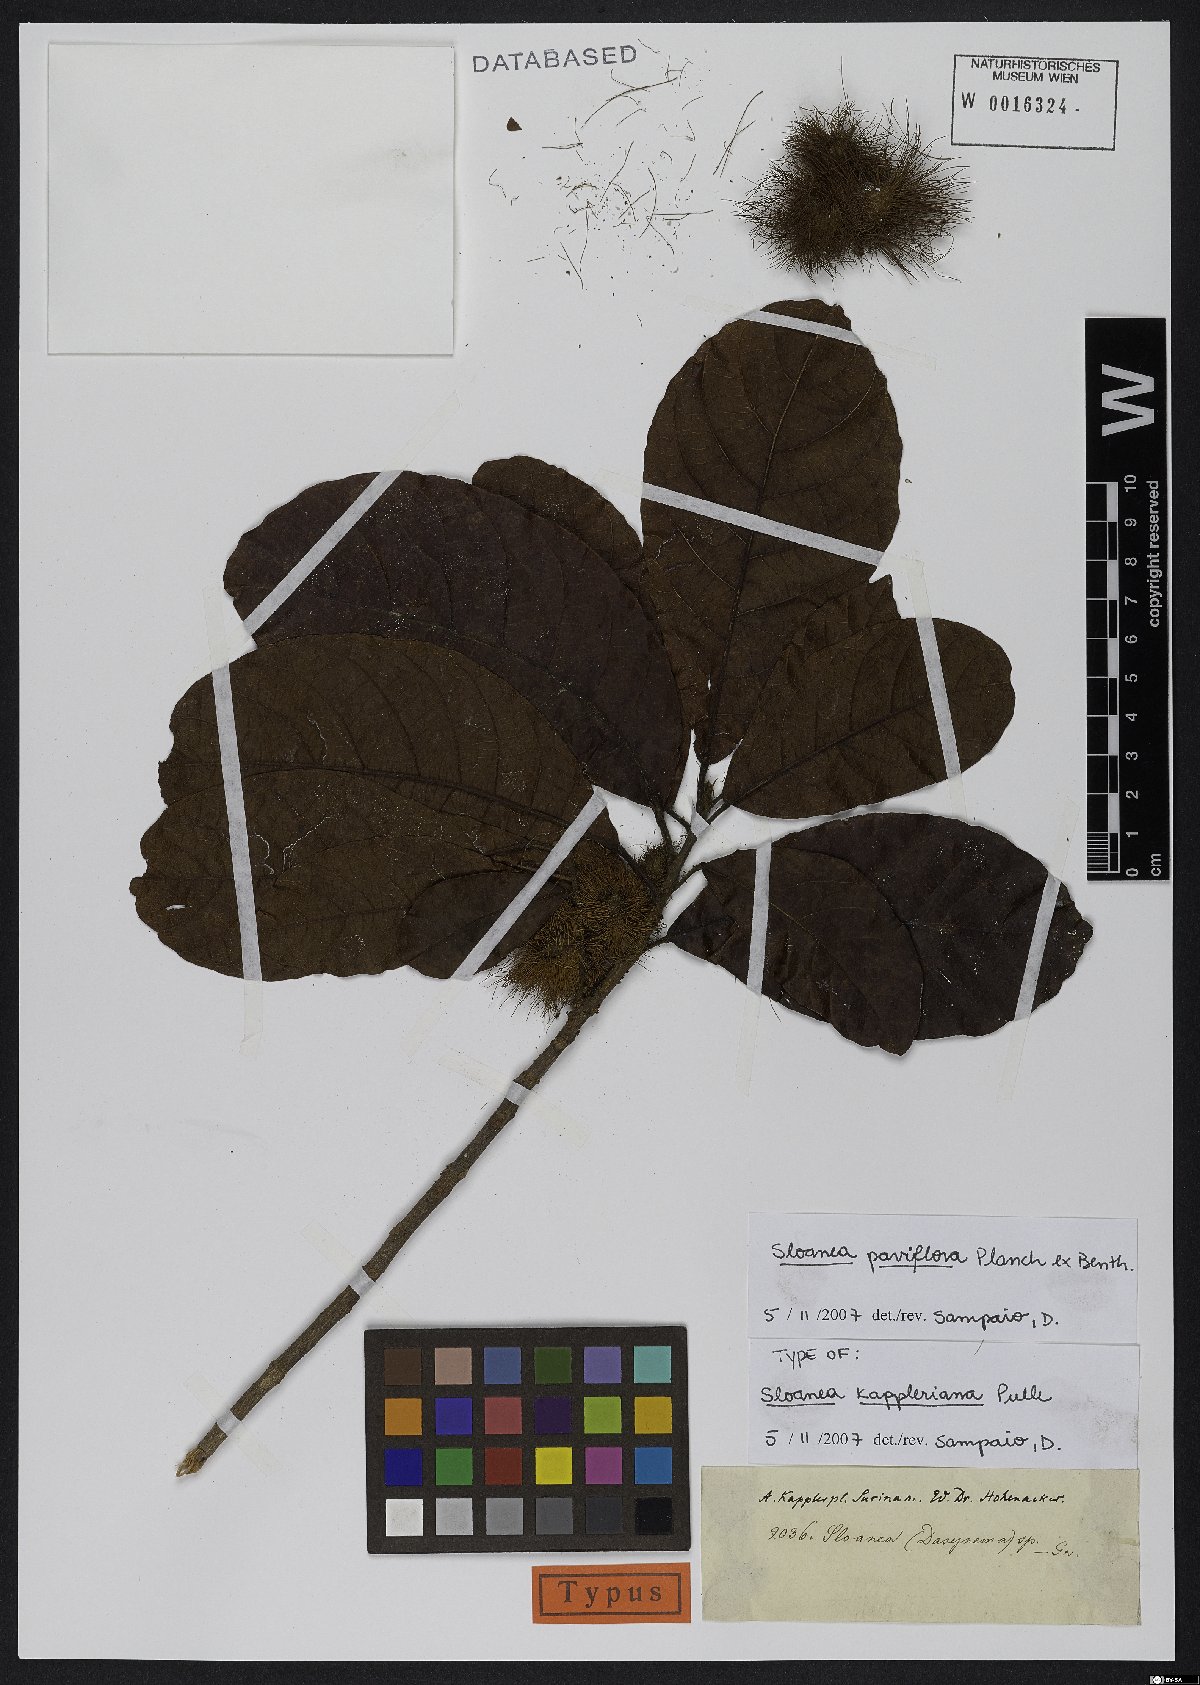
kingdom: Plantae
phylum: Tracheophyta
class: Magnoliopsida
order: Oxalidales
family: Elaeocarpaceae
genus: Sloanea
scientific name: Sloanea kappleriana
